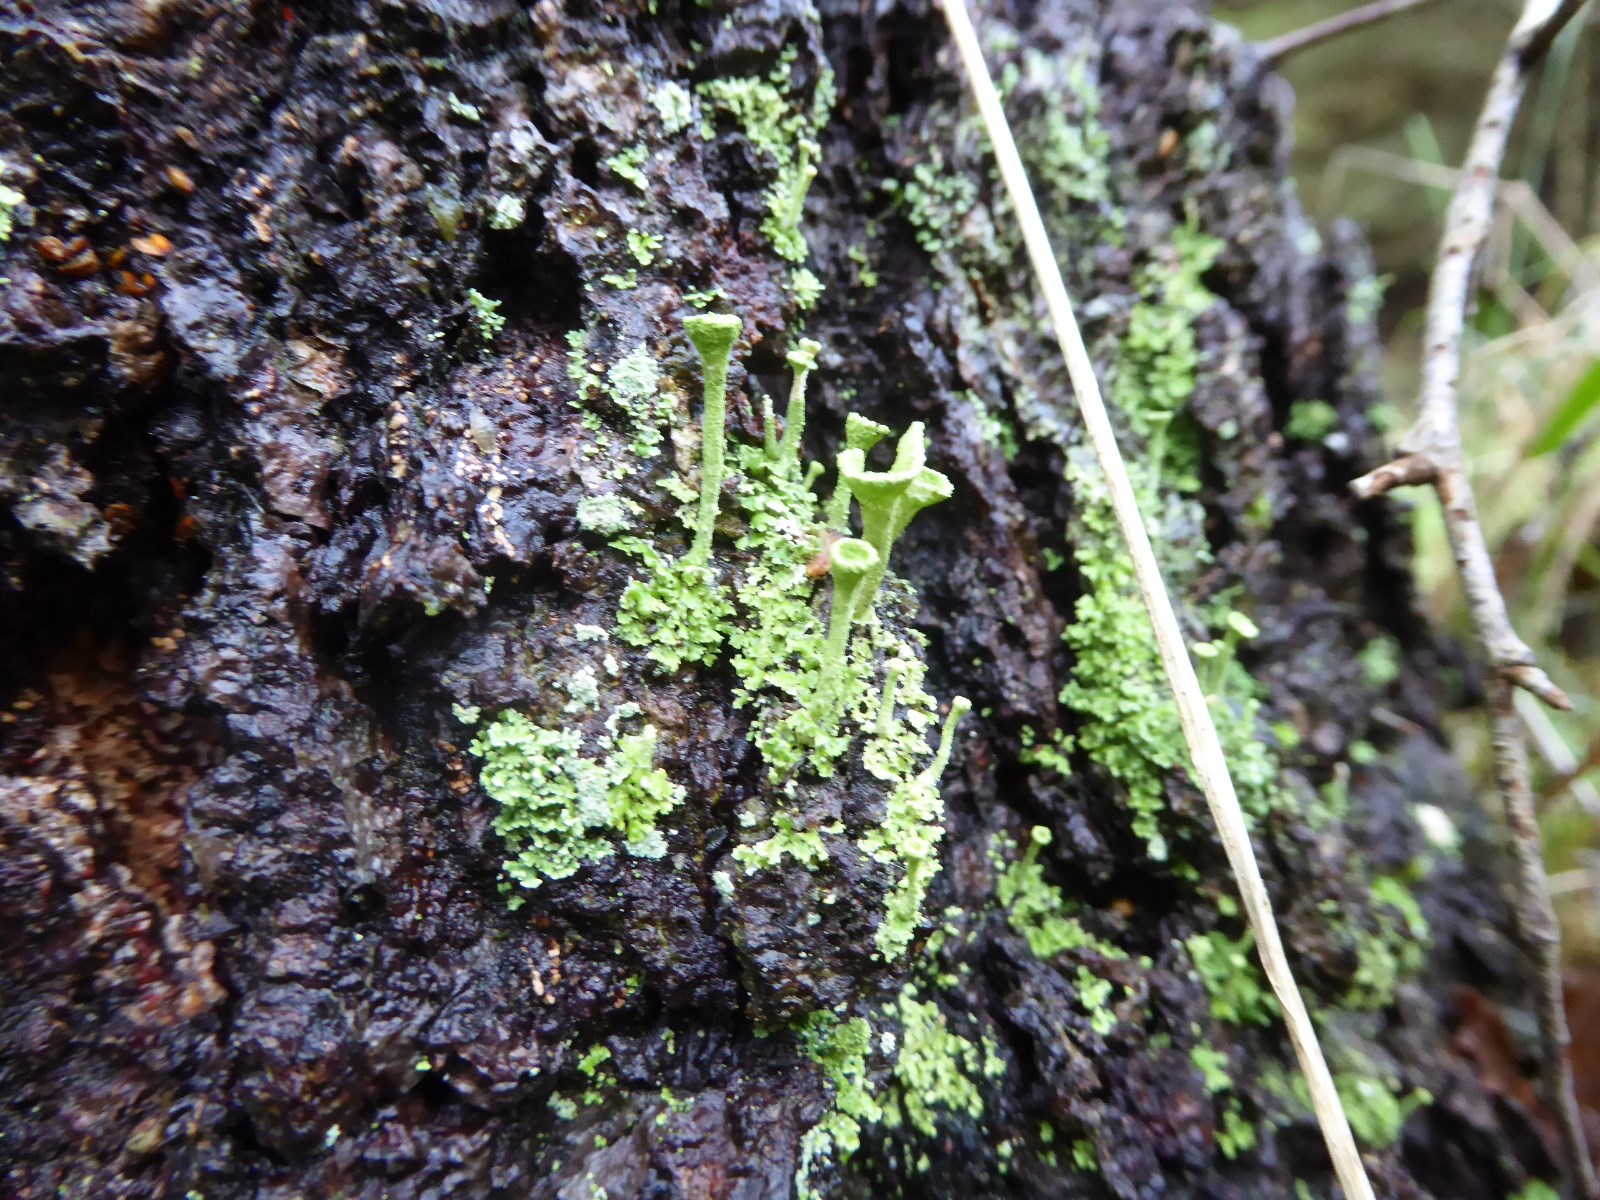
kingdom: Fungi
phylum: Ascomycota
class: Lecanoromycetes
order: Lecanorales
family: Cladoniaceae
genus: Cladonia
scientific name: Cladonia fimbriata
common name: bleggrøn bægerlav
